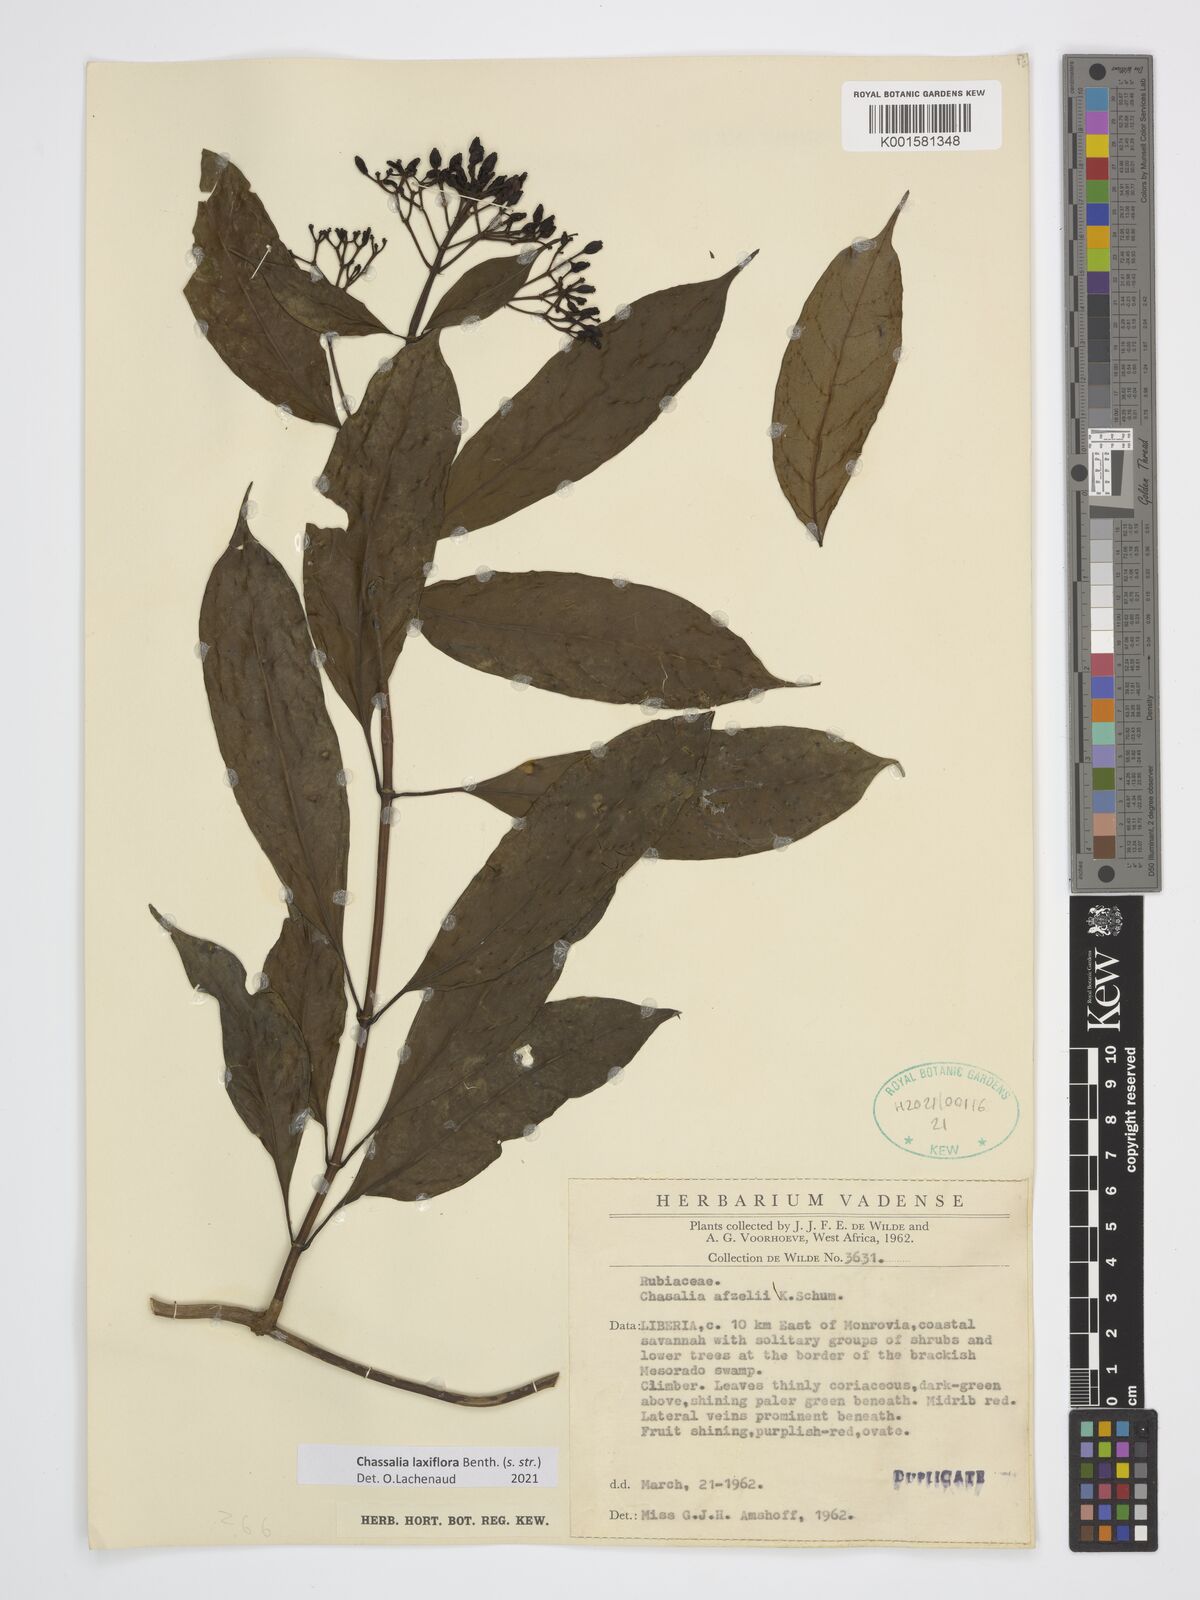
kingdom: Plantae
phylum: Tracheophyta
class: Magnoliopsida
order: Gentianales
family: Rubiaceae
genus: Chassalia
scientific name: Chassalia laxiflora
